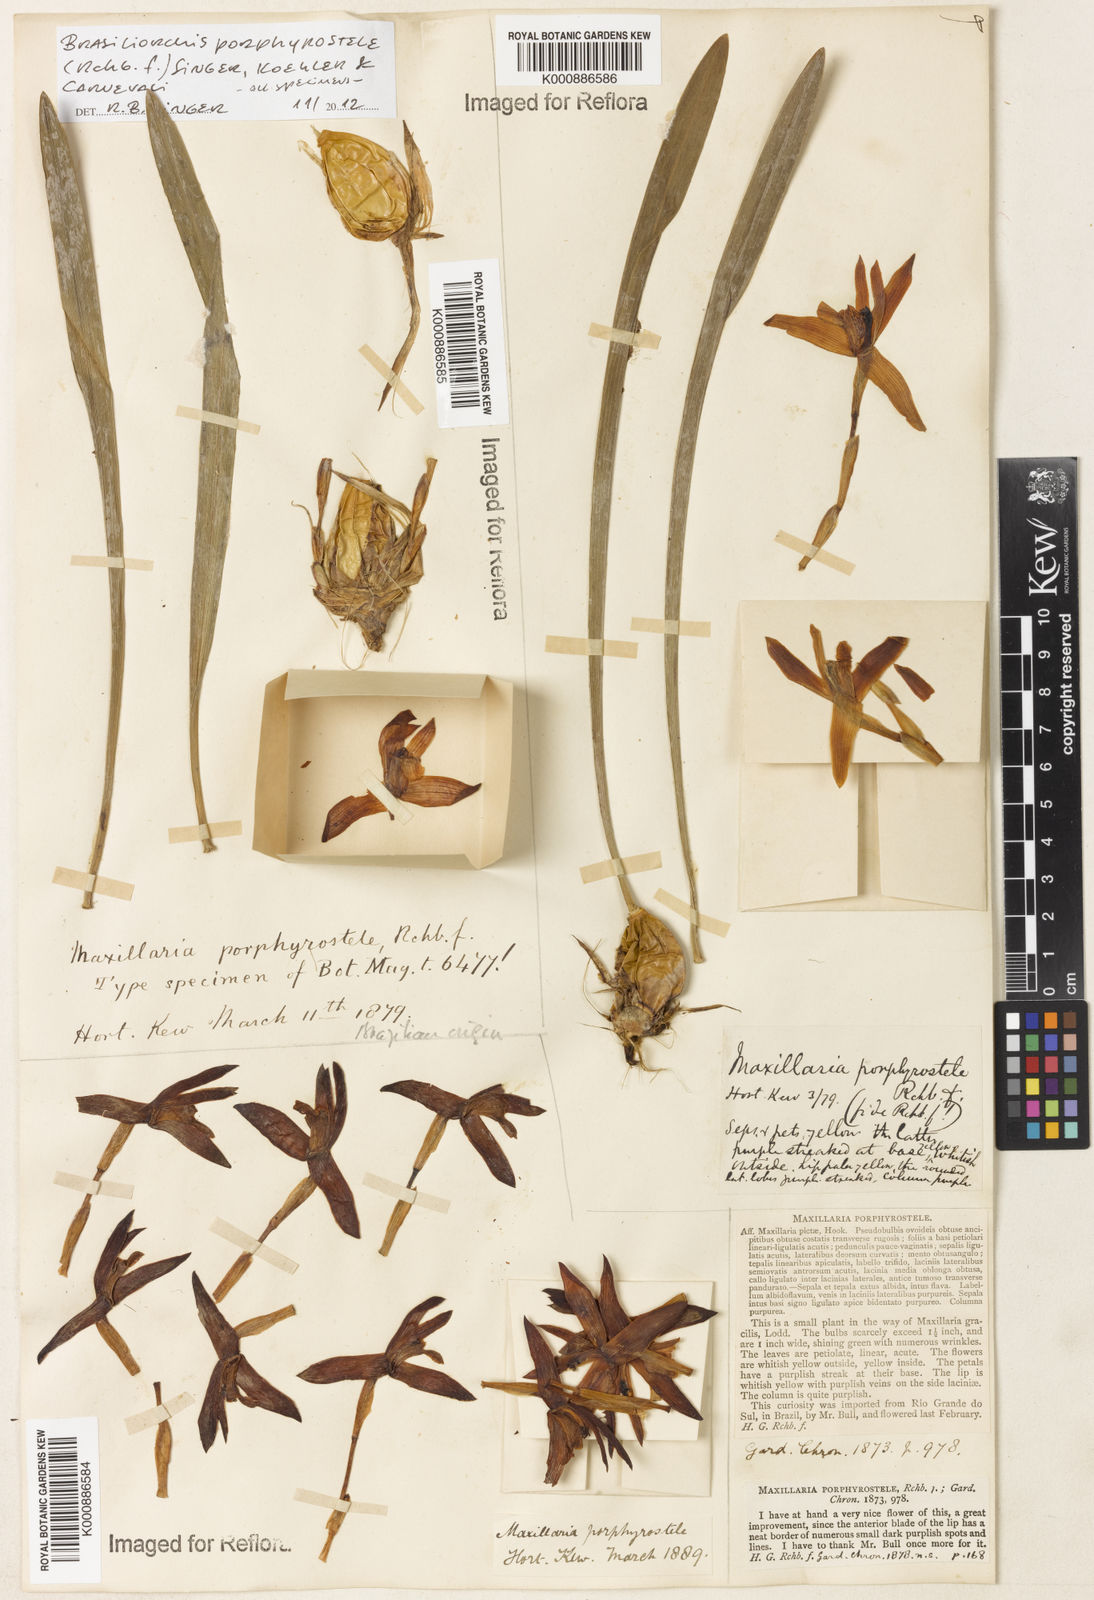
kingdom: Plantae
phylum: Tracheophyta
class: Liliopsida
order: Asparagales
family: Orchidaceae
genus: Maxillaria
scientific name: Maxillaria porphyrostele
